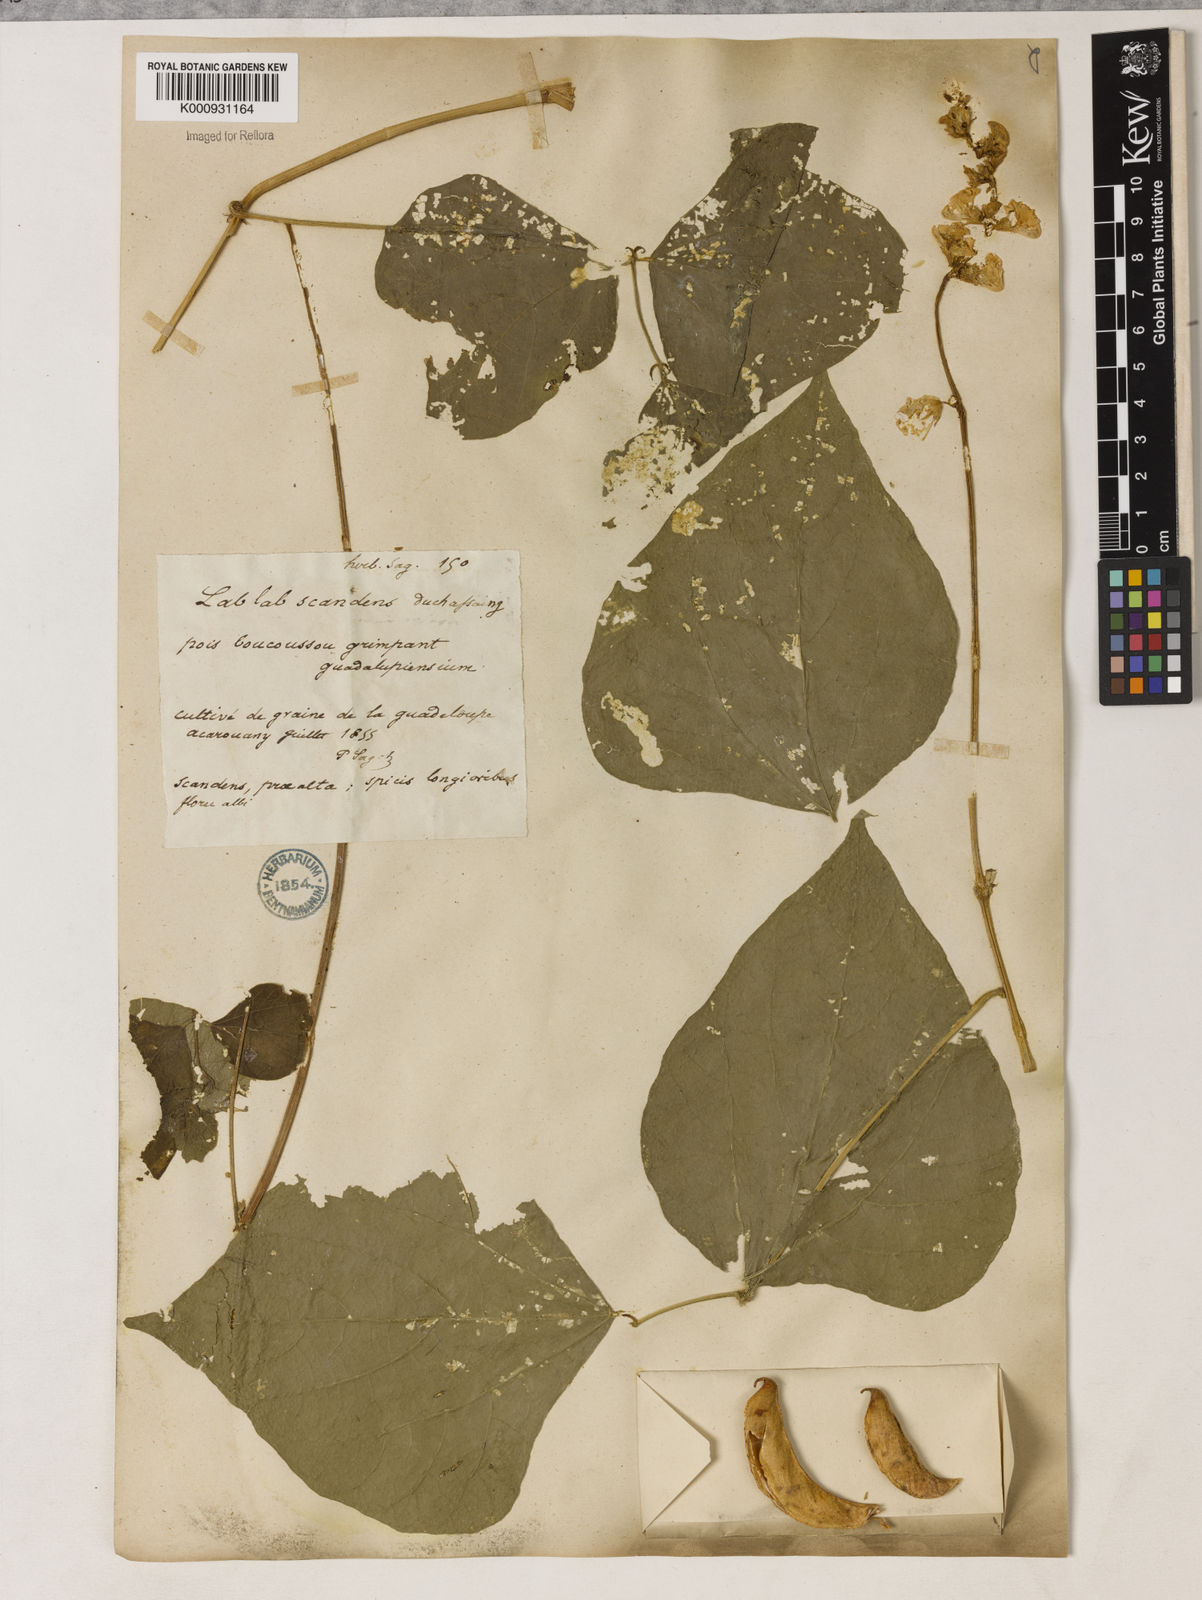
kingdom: Plantae
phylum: Tracheophyta
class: Magnoliopsida
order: Fabales
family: Fabaceae
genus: Lablab
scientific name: Lablab purpureus
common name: Lablab-bean
